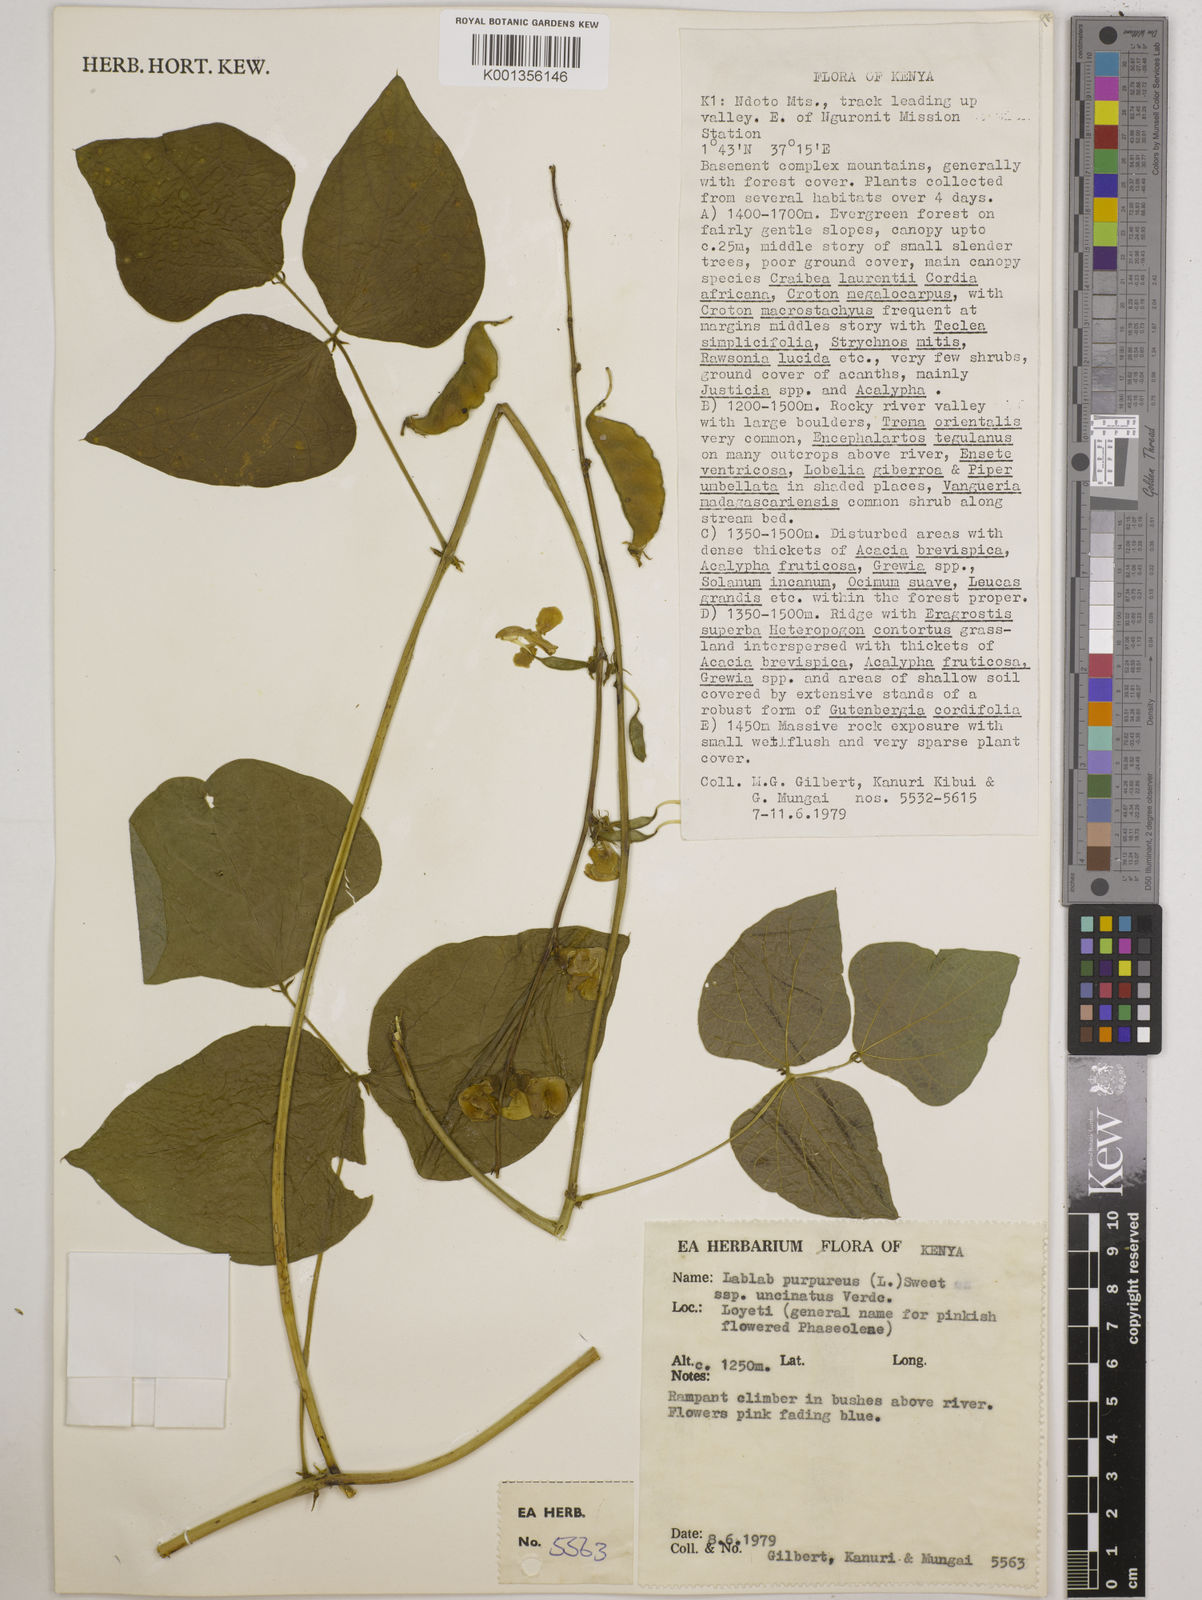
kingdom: Plantae
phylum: Tracheophyta
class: Magnoliopsida
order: Fabales
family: Fabaceae
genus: Lablab
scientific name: Lablab purpureus
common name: Lablab-bean
